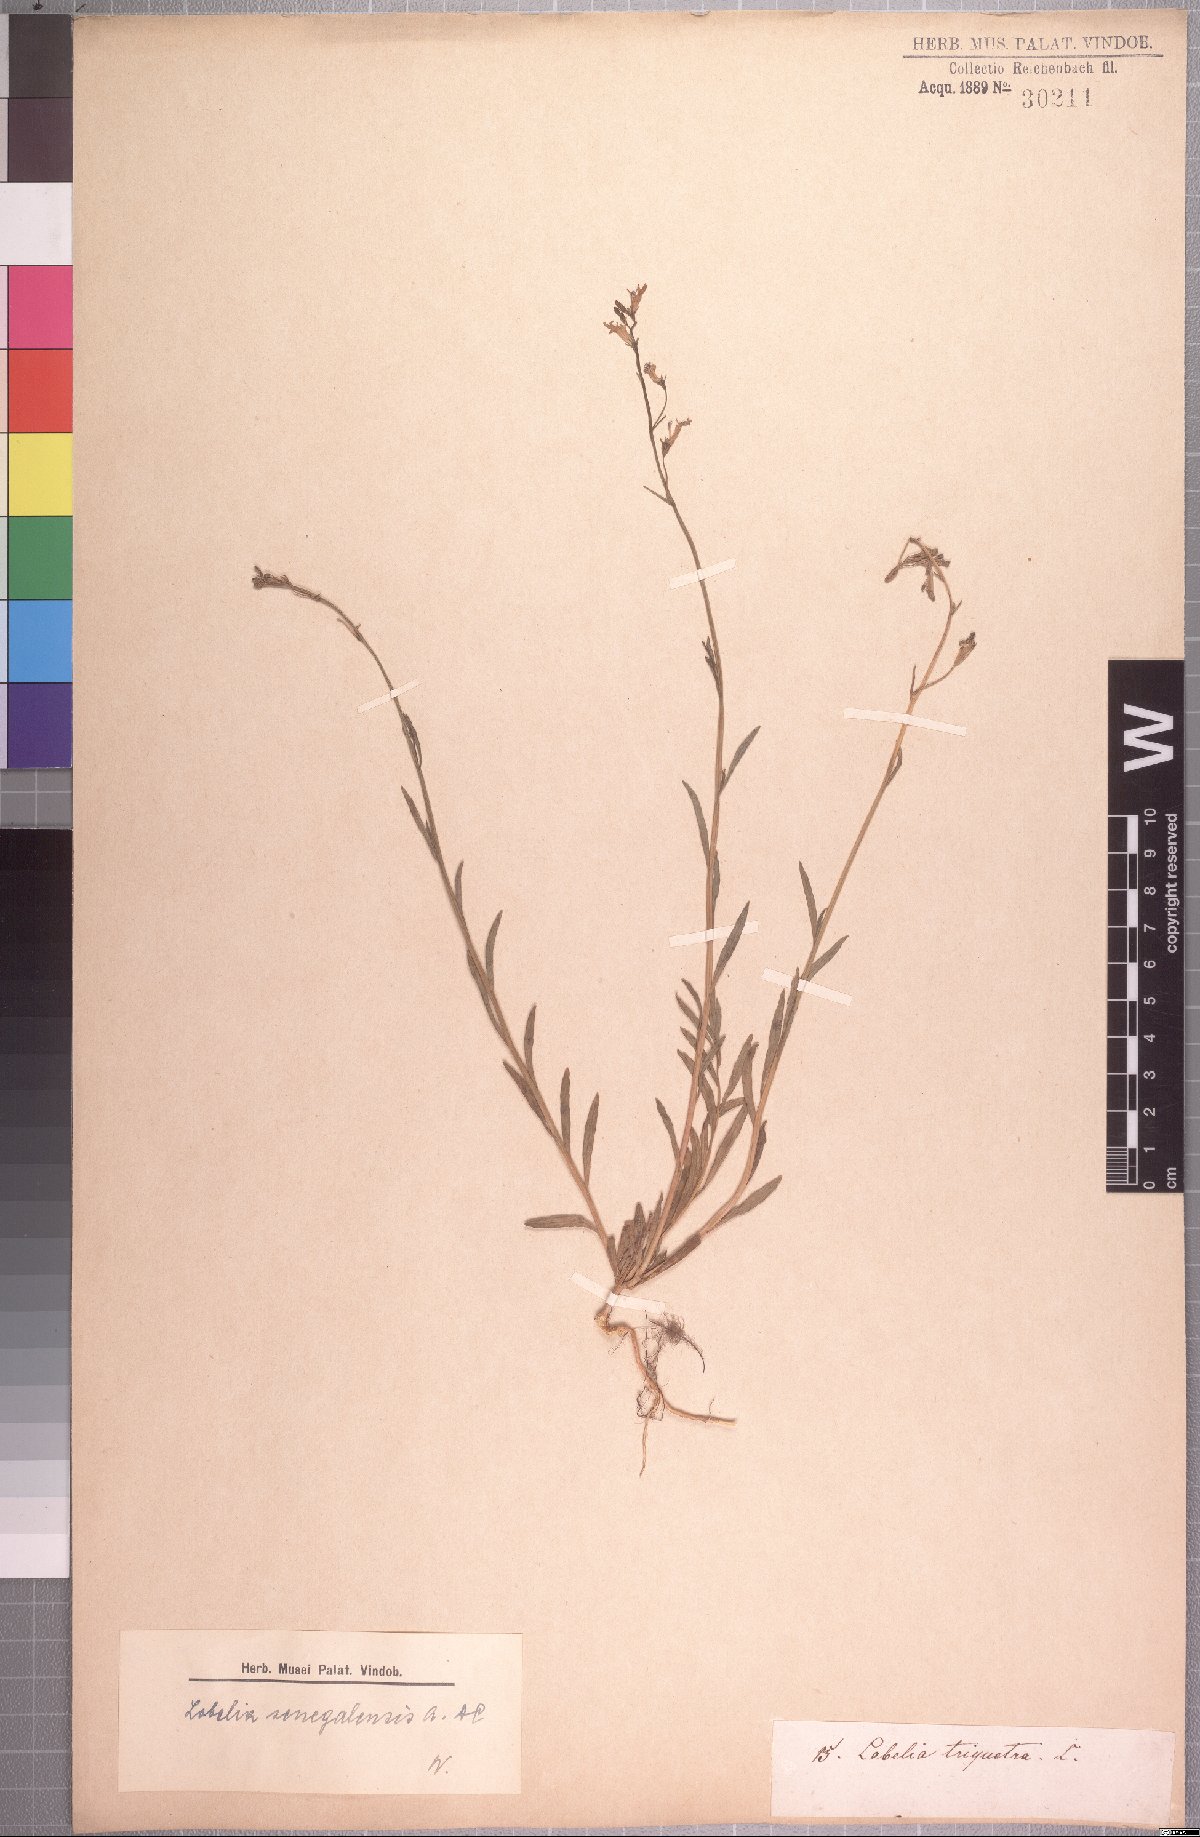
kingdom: Plantae
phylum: Tracheophyta
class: Magnoliopsida
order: Asterales
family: Campanulaceae
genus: Lobelia
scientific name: Lobelia erinus
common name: Edging lobelia
